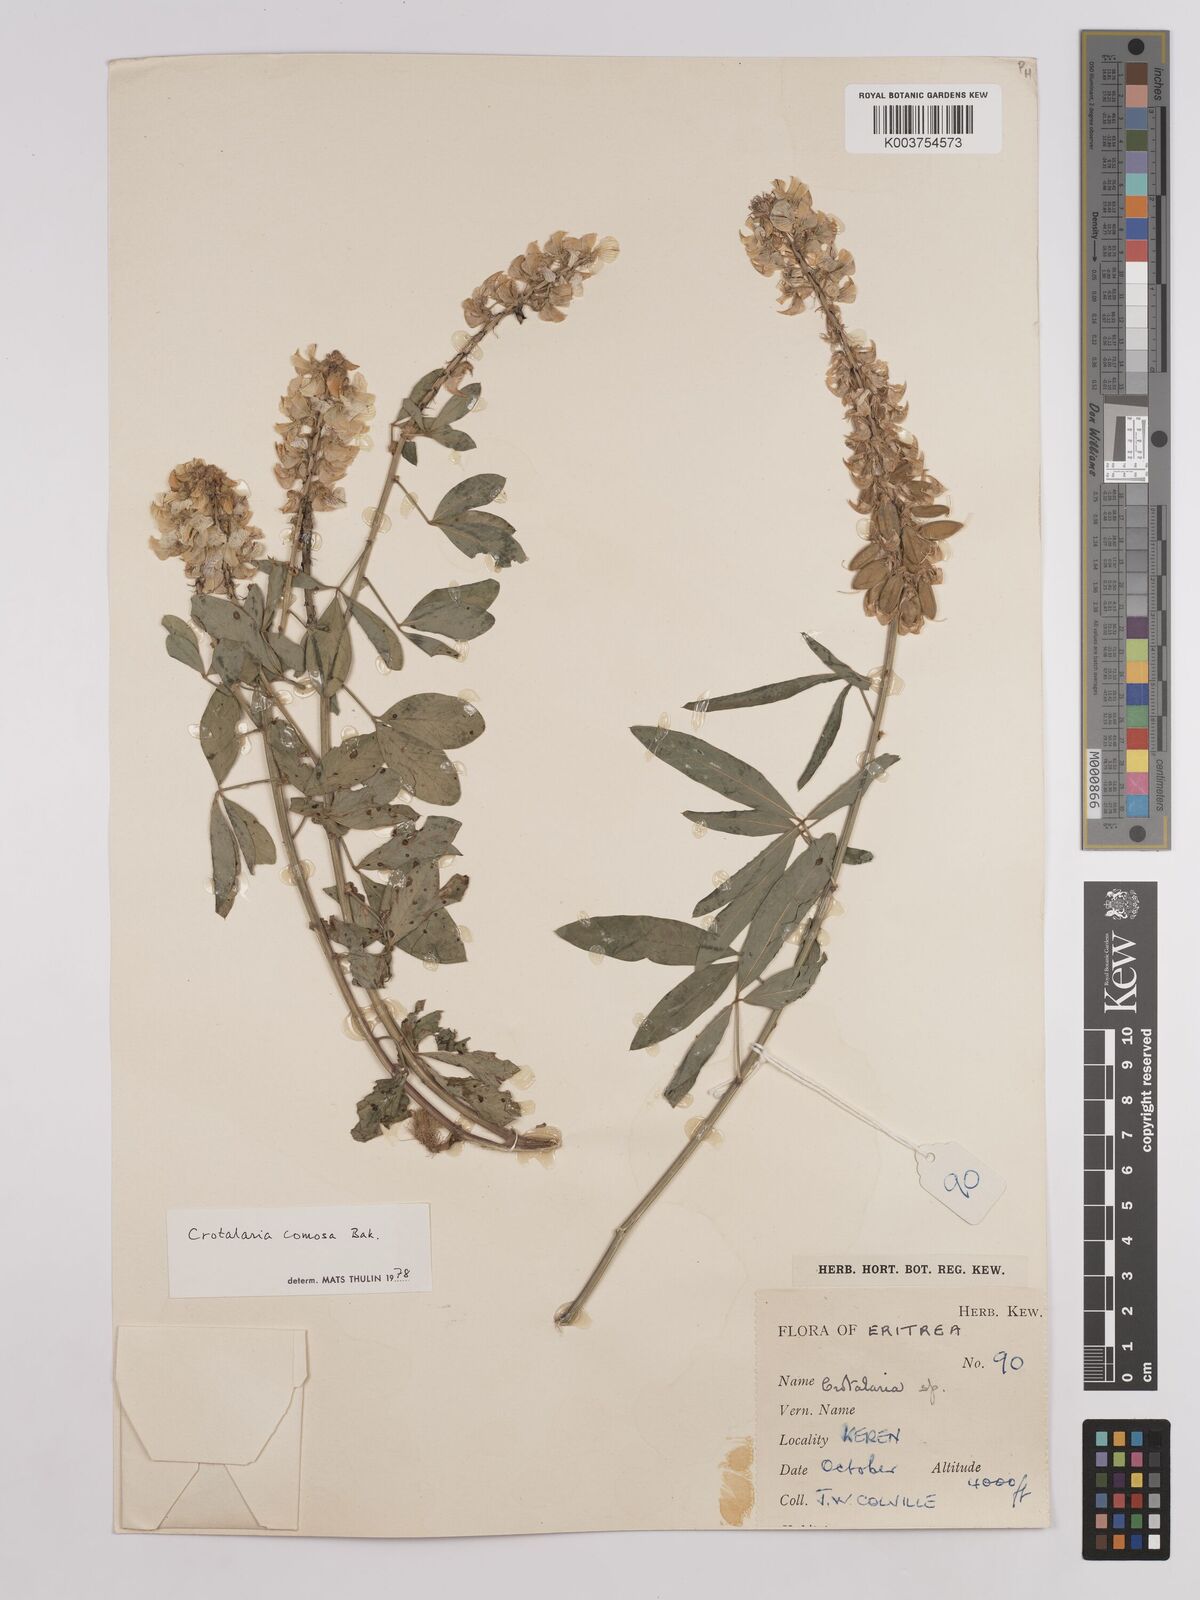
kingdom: Plantae
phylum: Tracheophyta
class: Magnoliopsida
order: Fabales
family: Fabaceae
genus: Crotalaria
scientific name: Crotalaria comosa
